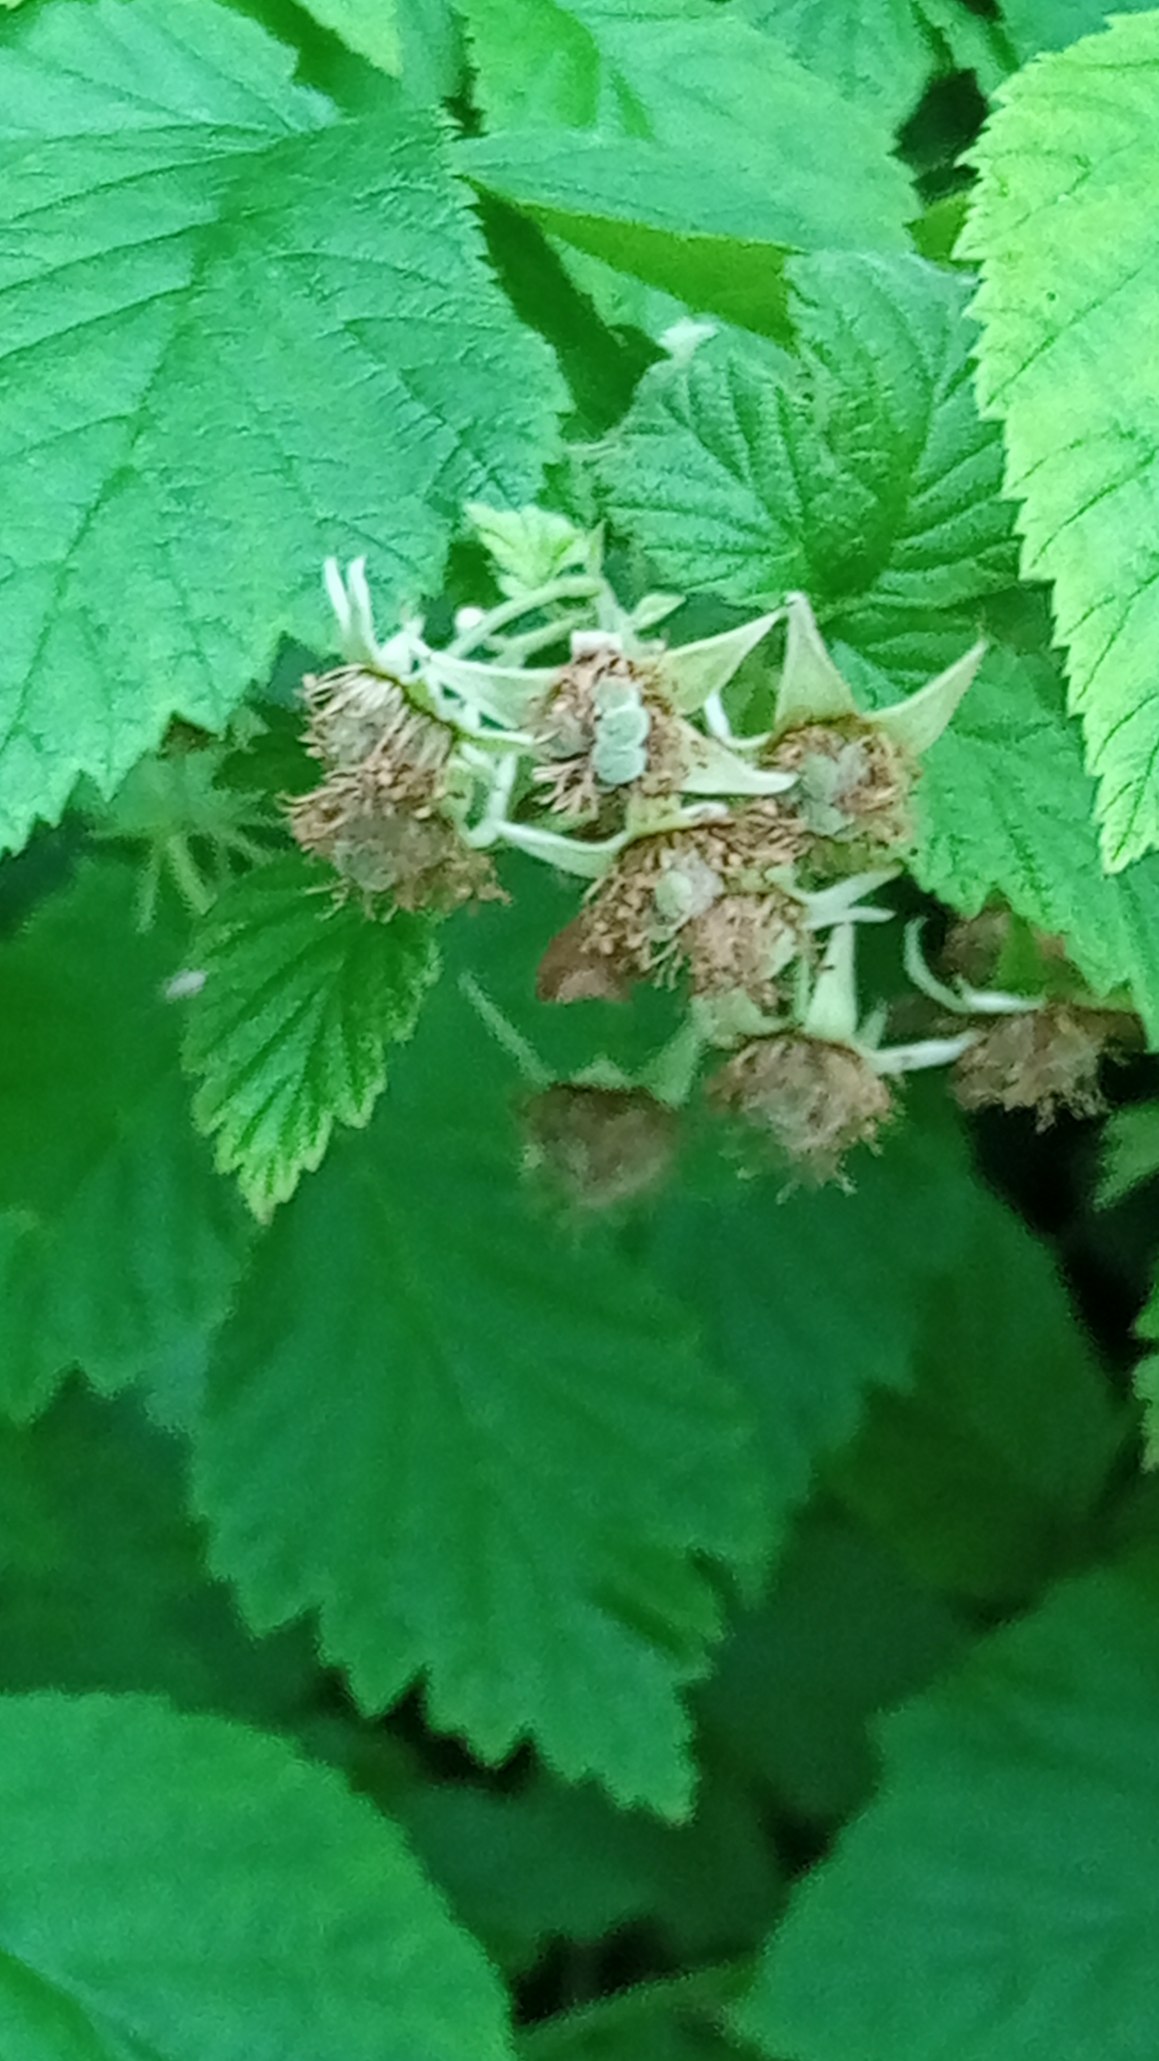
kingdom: Plantae
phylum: Tracheophyta
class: Magnoliopsida
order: Rosales
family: Rosaceae
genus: Rubus
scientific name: Rubus idaeus
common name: Hindbær
